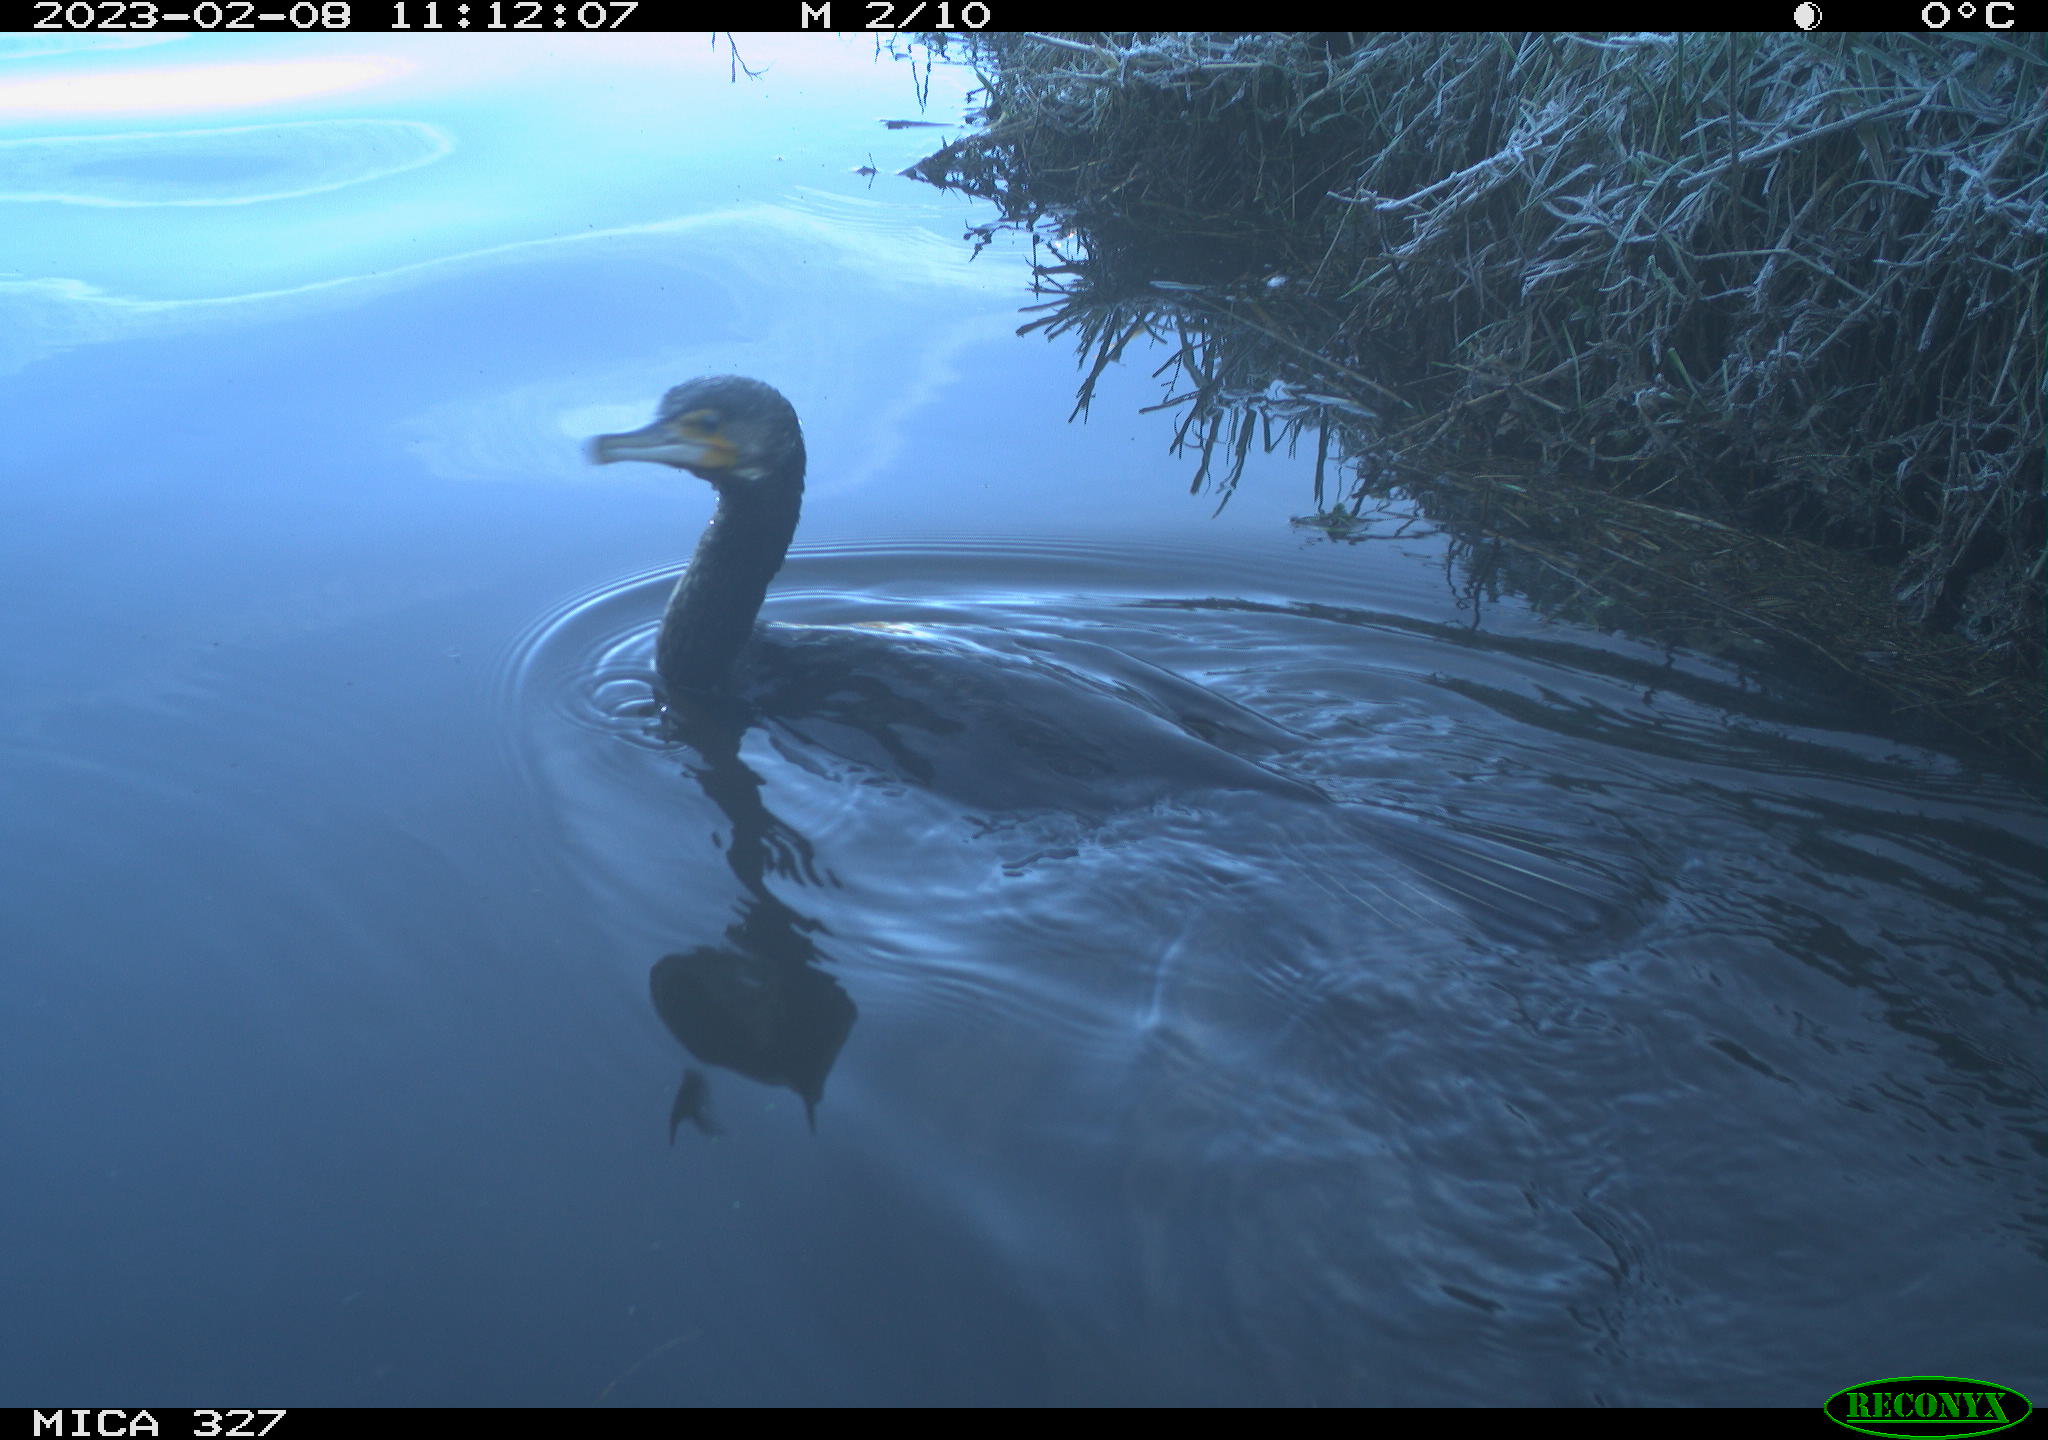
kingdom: Animalia
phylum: Chordata
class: Aves
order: Suliformes
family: Phalacrocoracidae
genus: Phalacrocorax
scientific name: Phalacrocorax carbo
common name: Great cormorant
